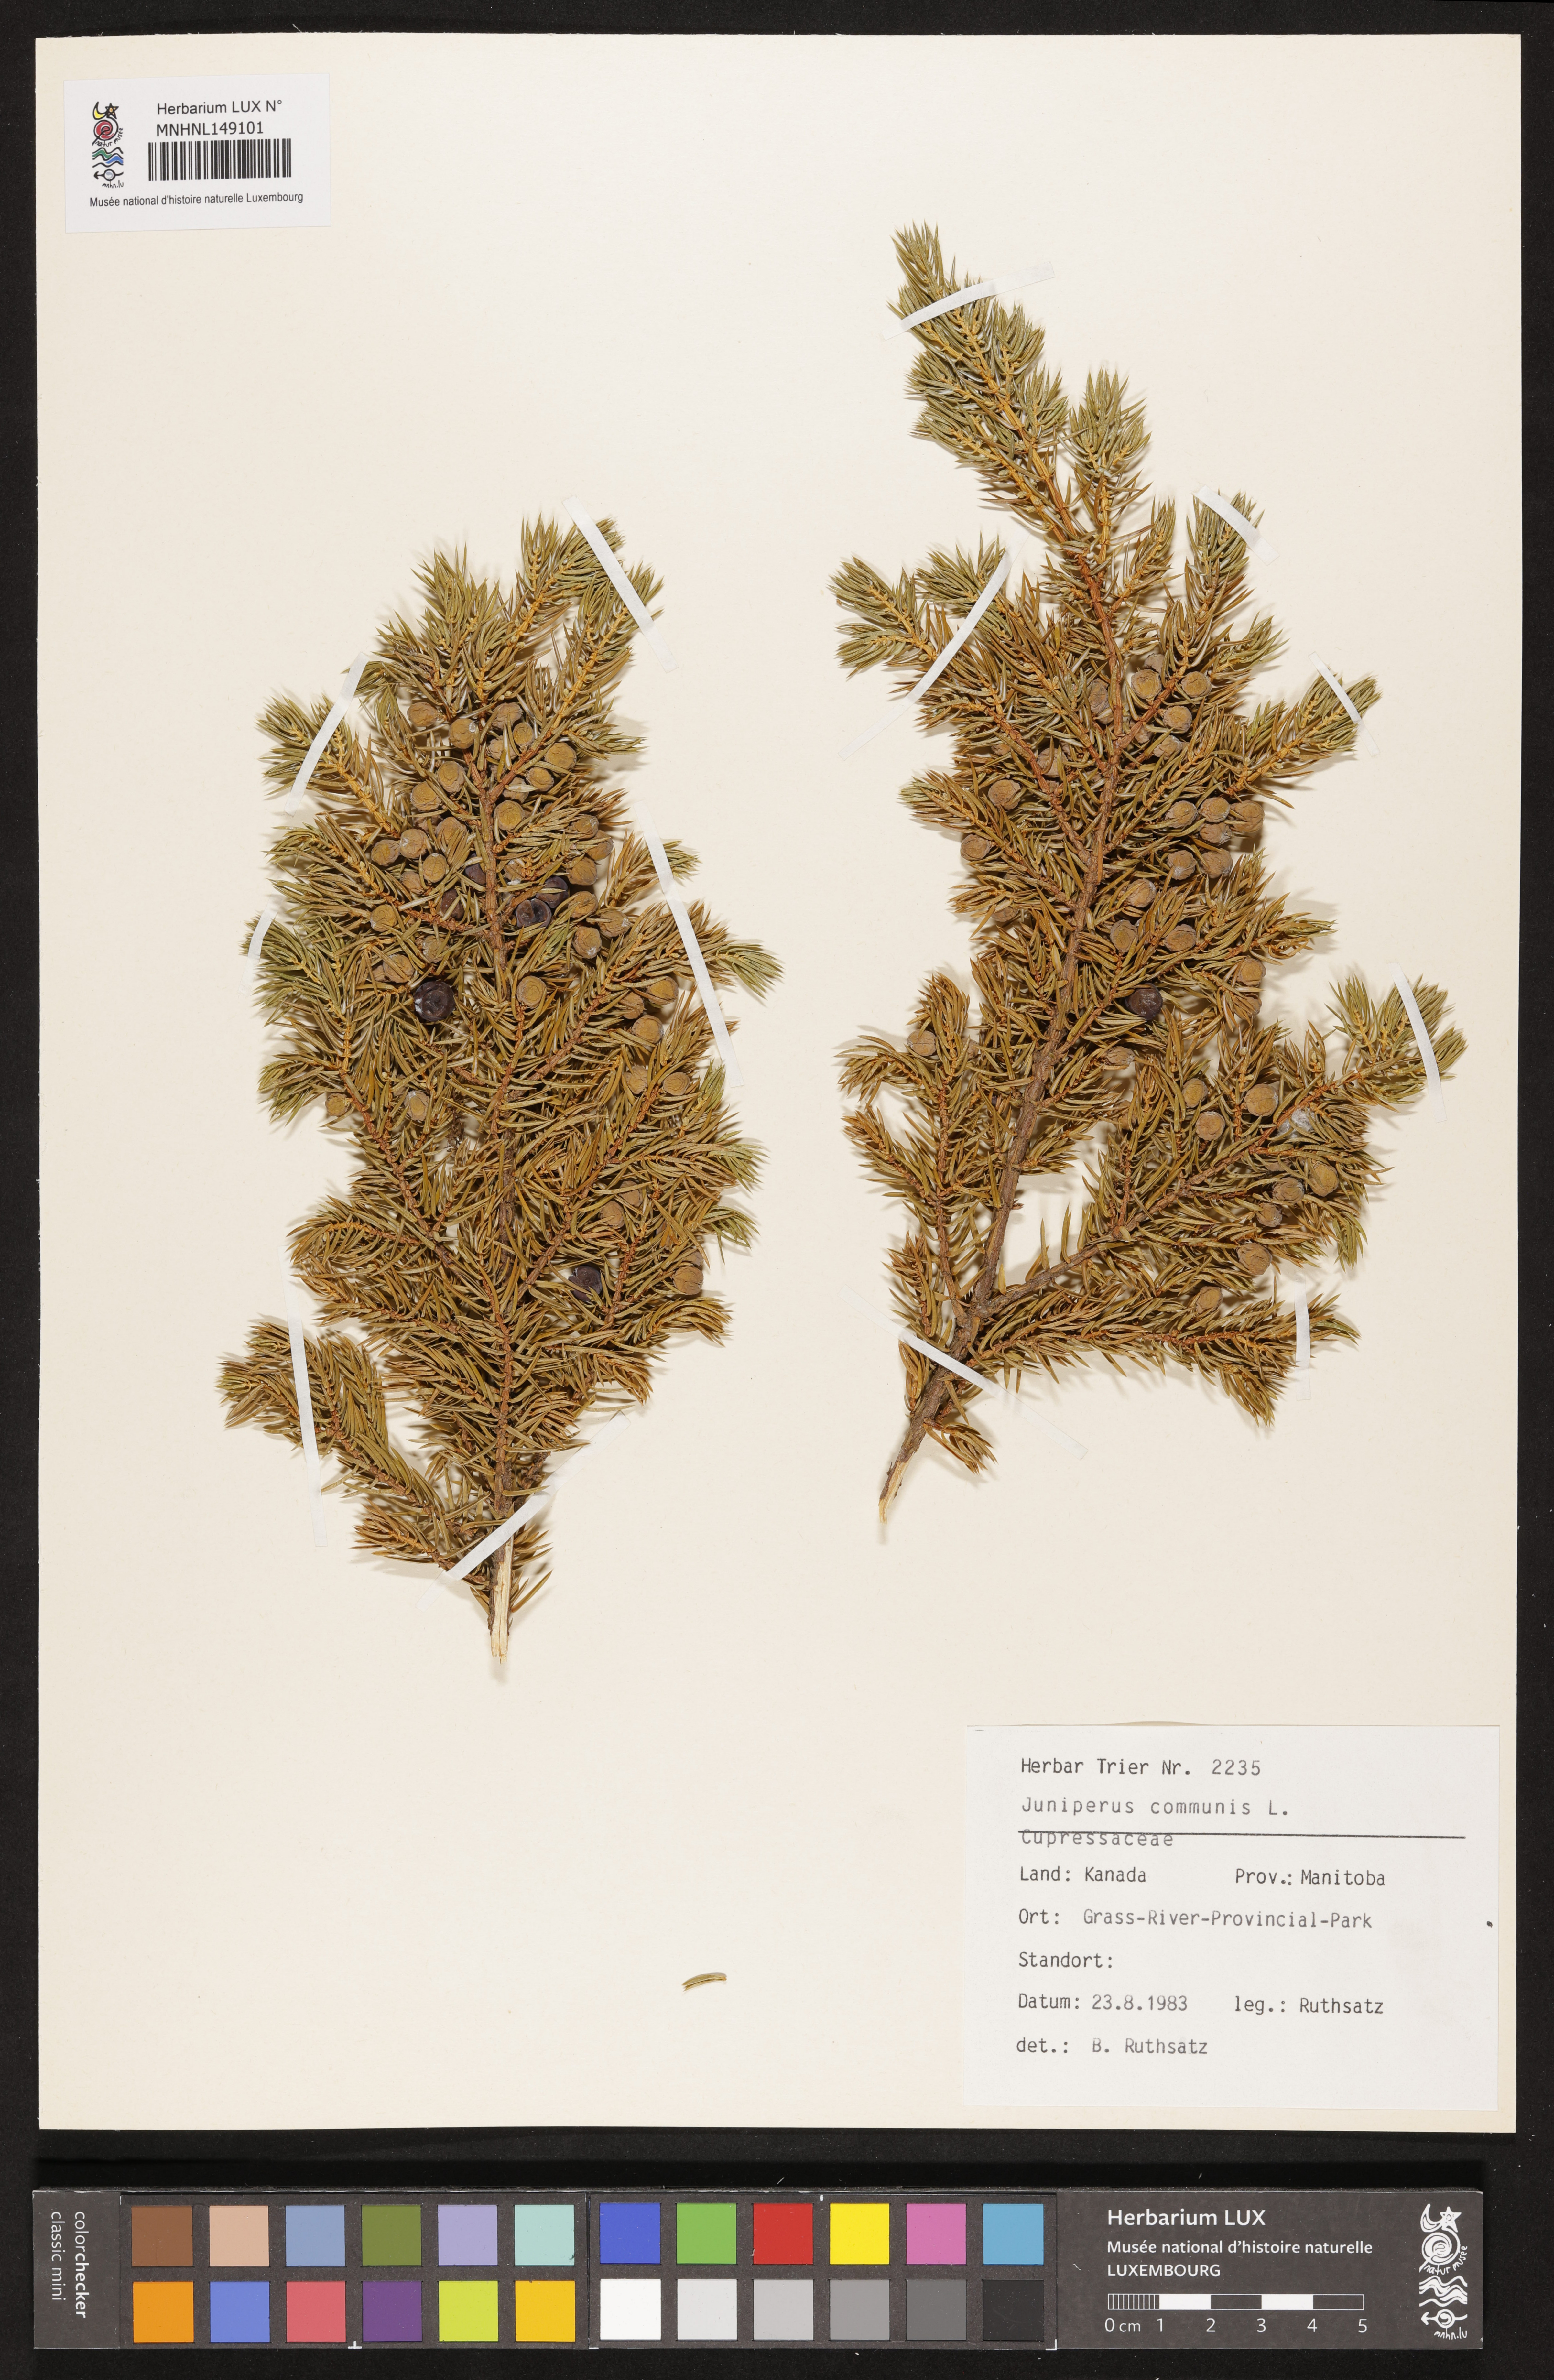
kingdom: Plantae
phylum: Tracheophyta
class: Pinopsida
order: Pinales
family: Cupressaceae
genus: Juniperus
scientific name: Juniperus communis
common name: Common juniper
